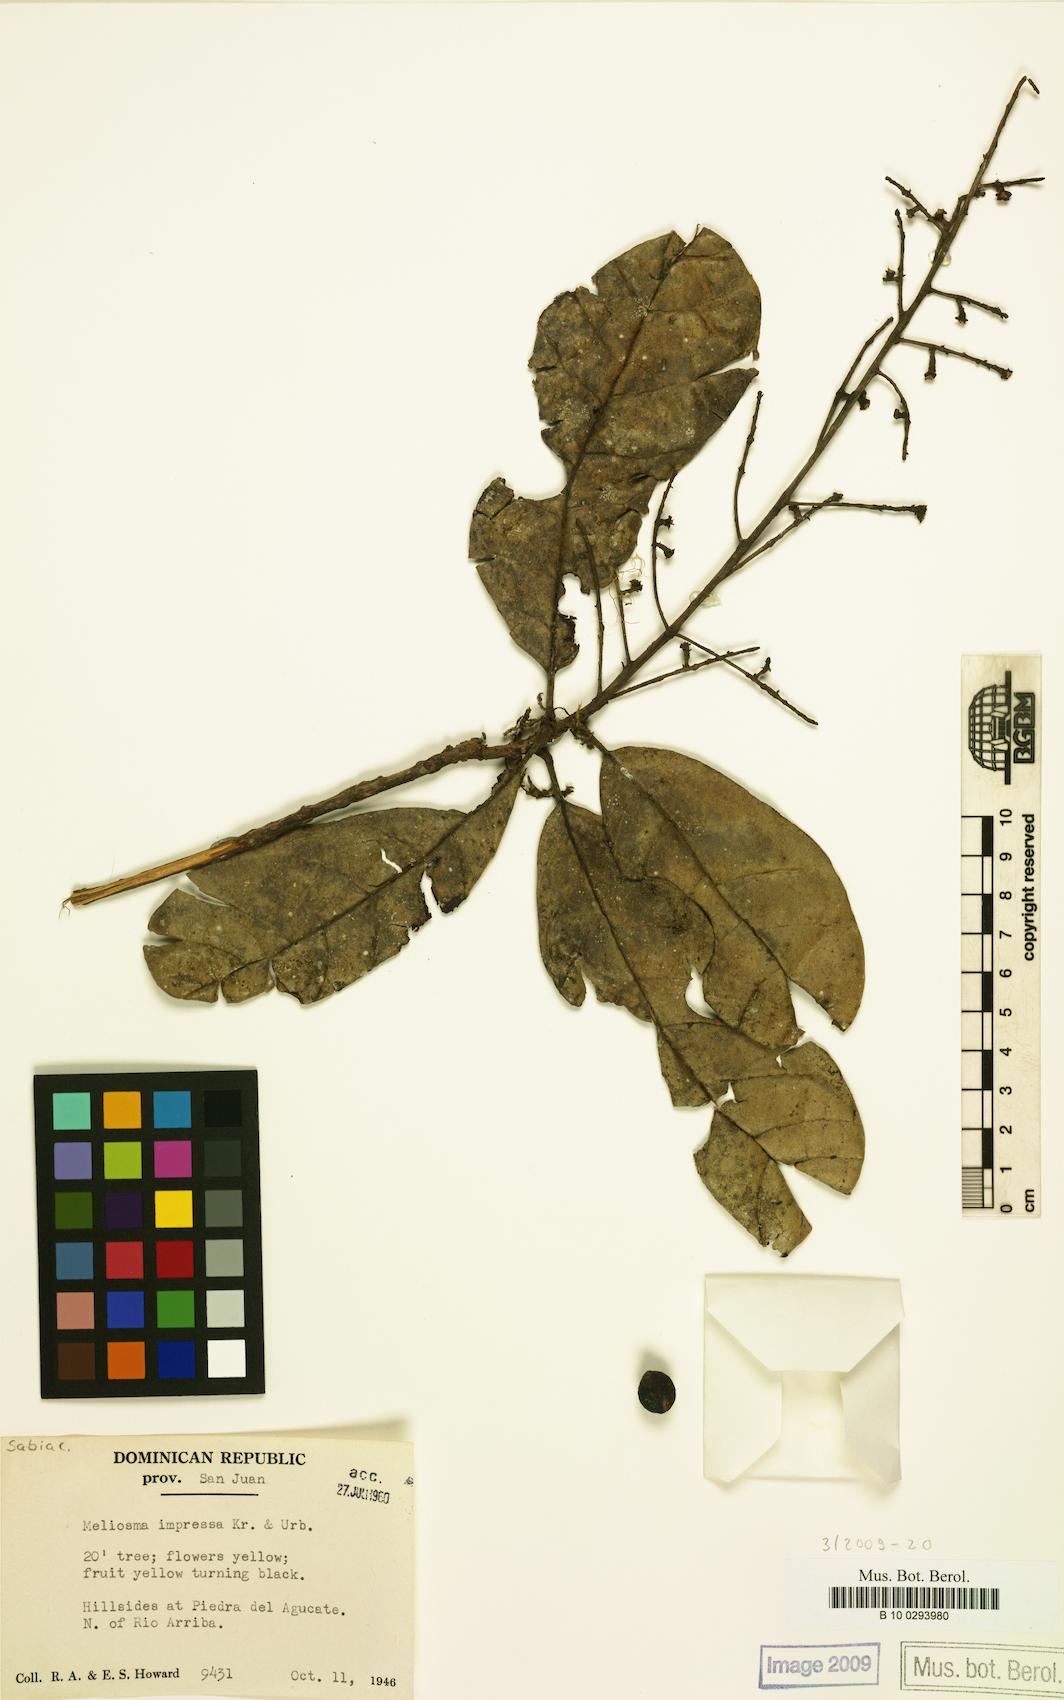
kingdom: Plantae
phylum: Tracheophyta
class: Magnoliopsida
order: Proteales
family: Sabiaceae
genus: Meliosma
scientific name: Meliosma impressa
